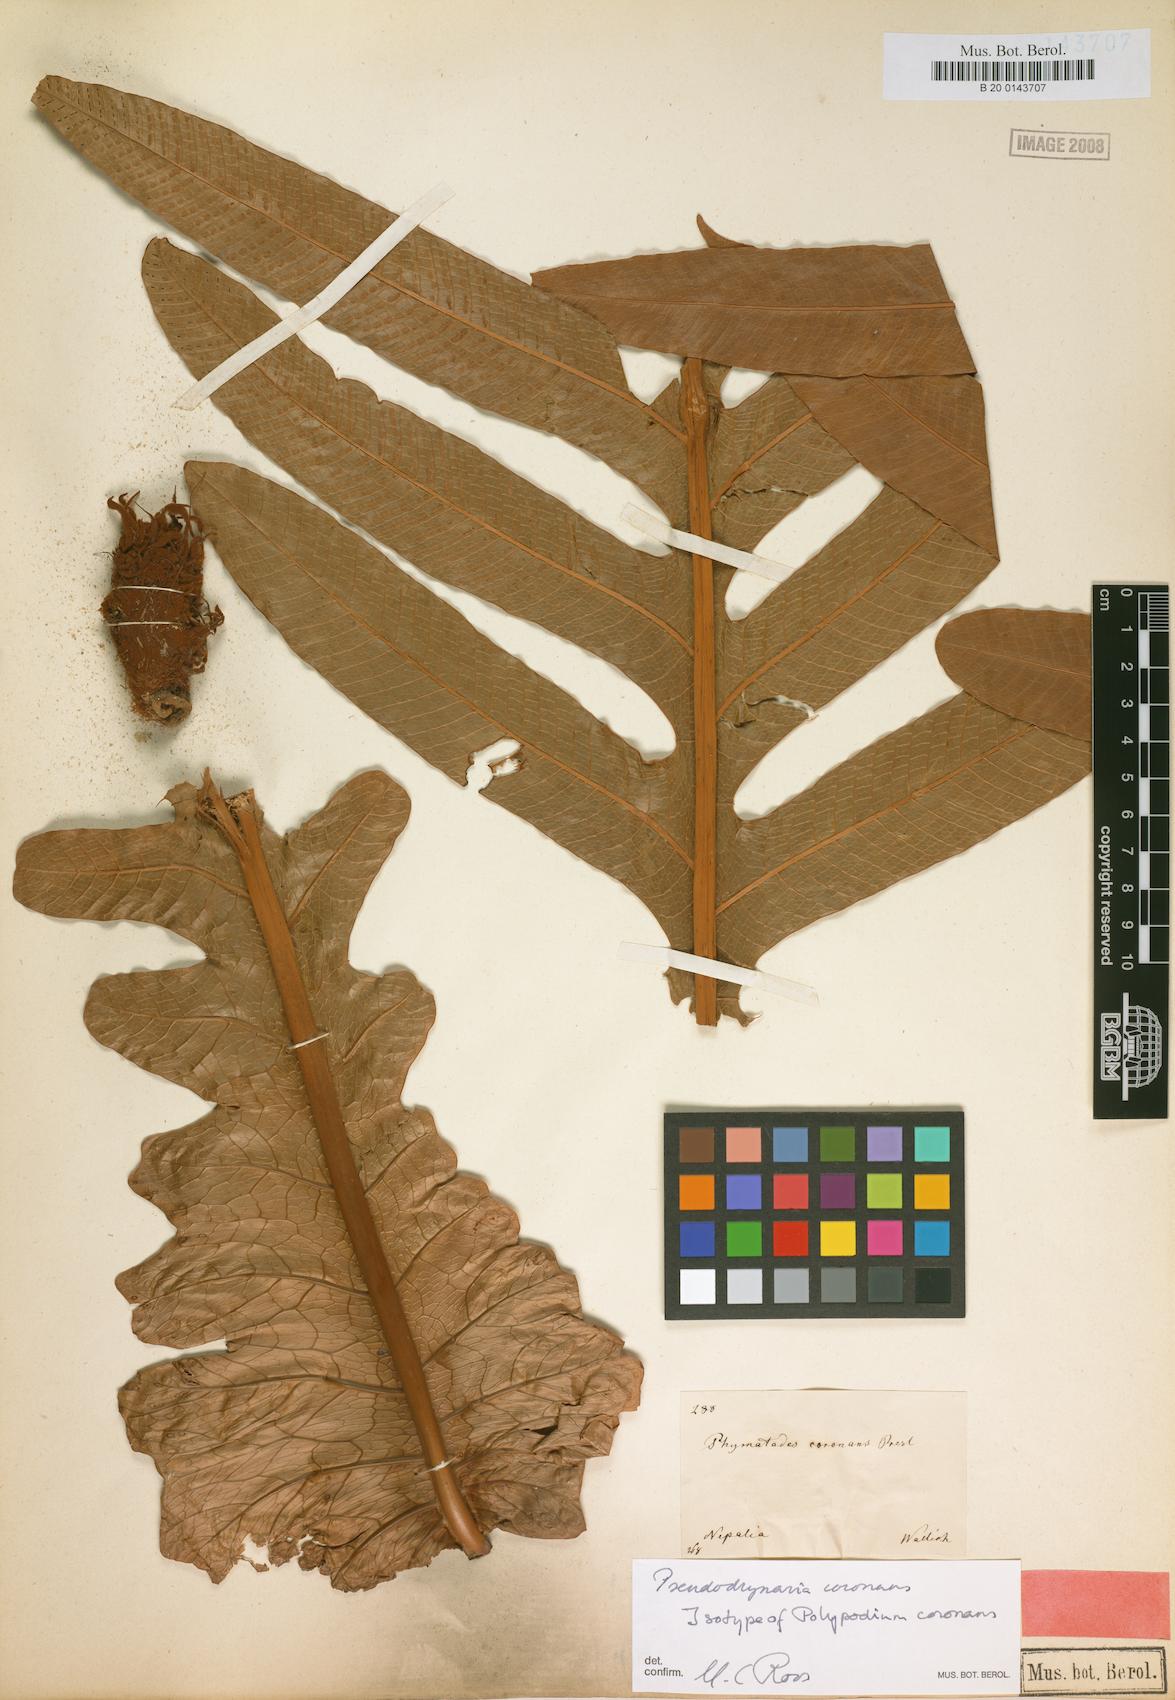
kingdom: Plantae
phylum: Tracheophyta
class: Polypodiopsida
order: Polypodiales
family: Polypodiaceae
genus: Drynaria
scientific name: Drynaria coronans
